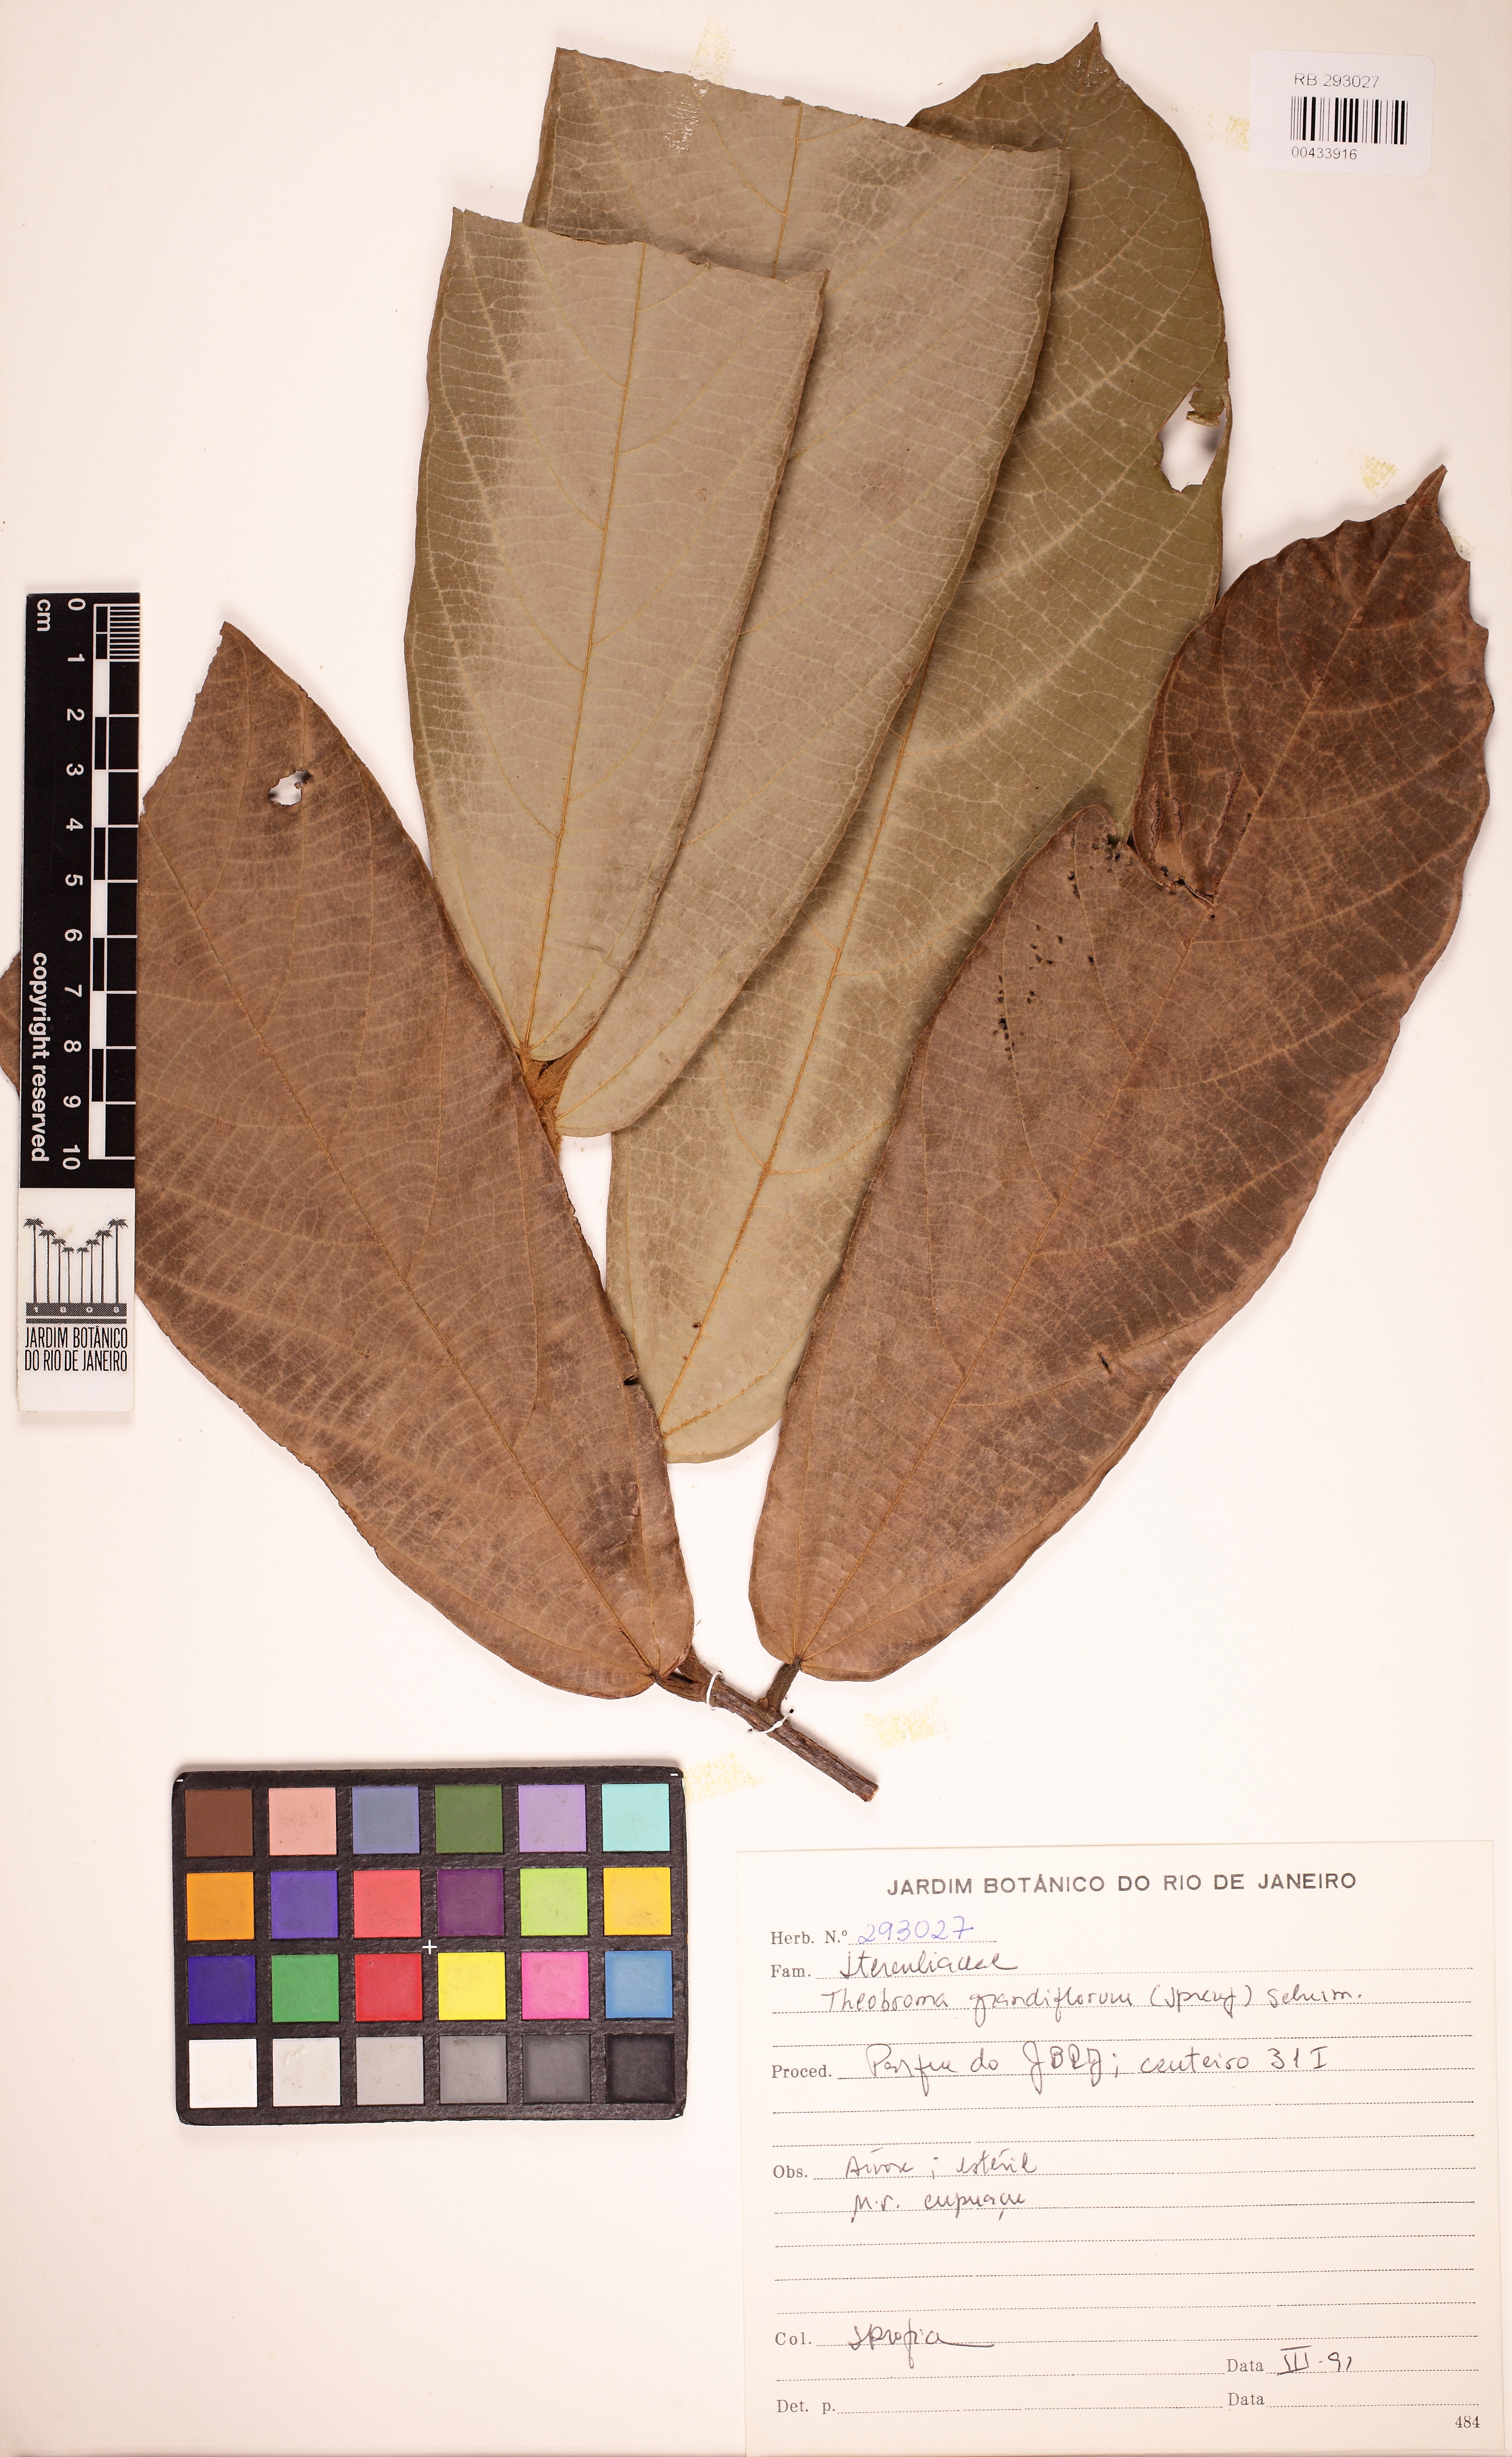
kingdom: Plantae
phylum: Tracheophyta
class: Magnoliopsida
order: Malvales
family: Malvaceae
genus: Theobroma
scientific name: Theobroma grandiflorum
